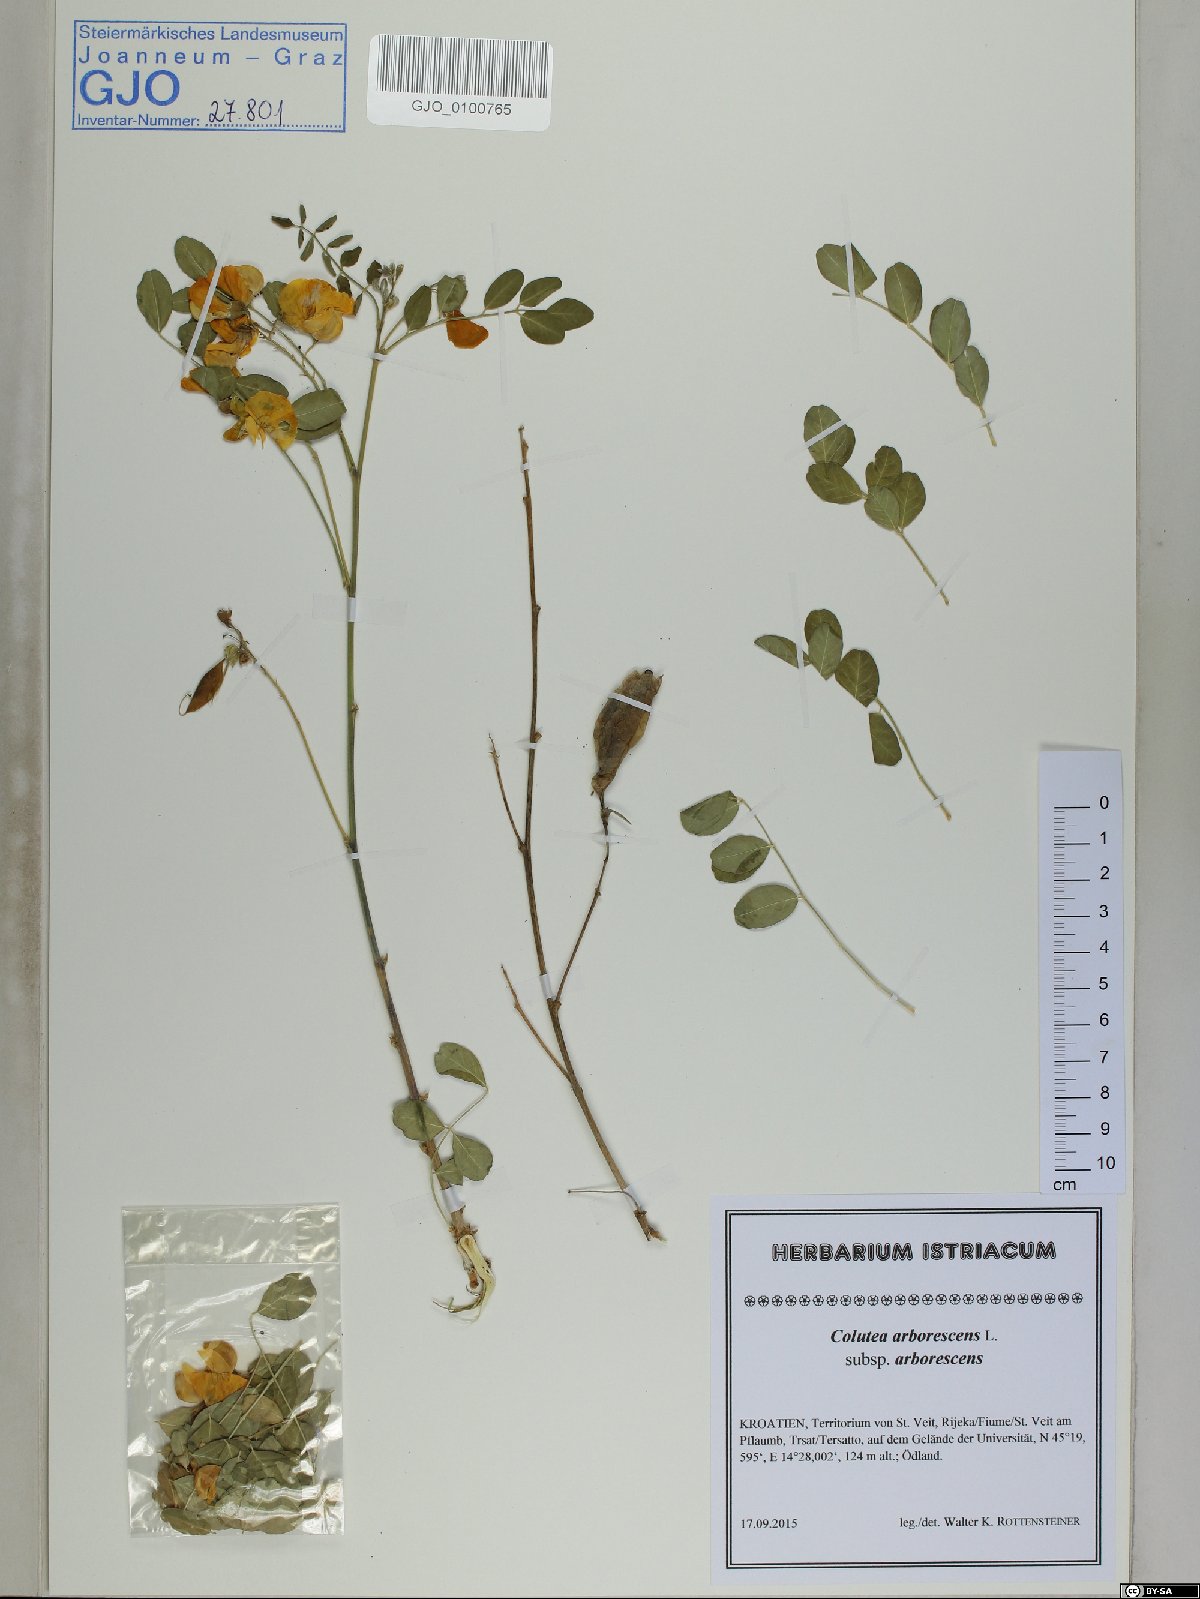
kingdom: Plantae
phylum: Tracheophyta
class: Magnoliopsida
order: Fabales
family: Fabaceae
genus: Colutea
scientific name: Colutea arborescens
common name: Bladder-senna
